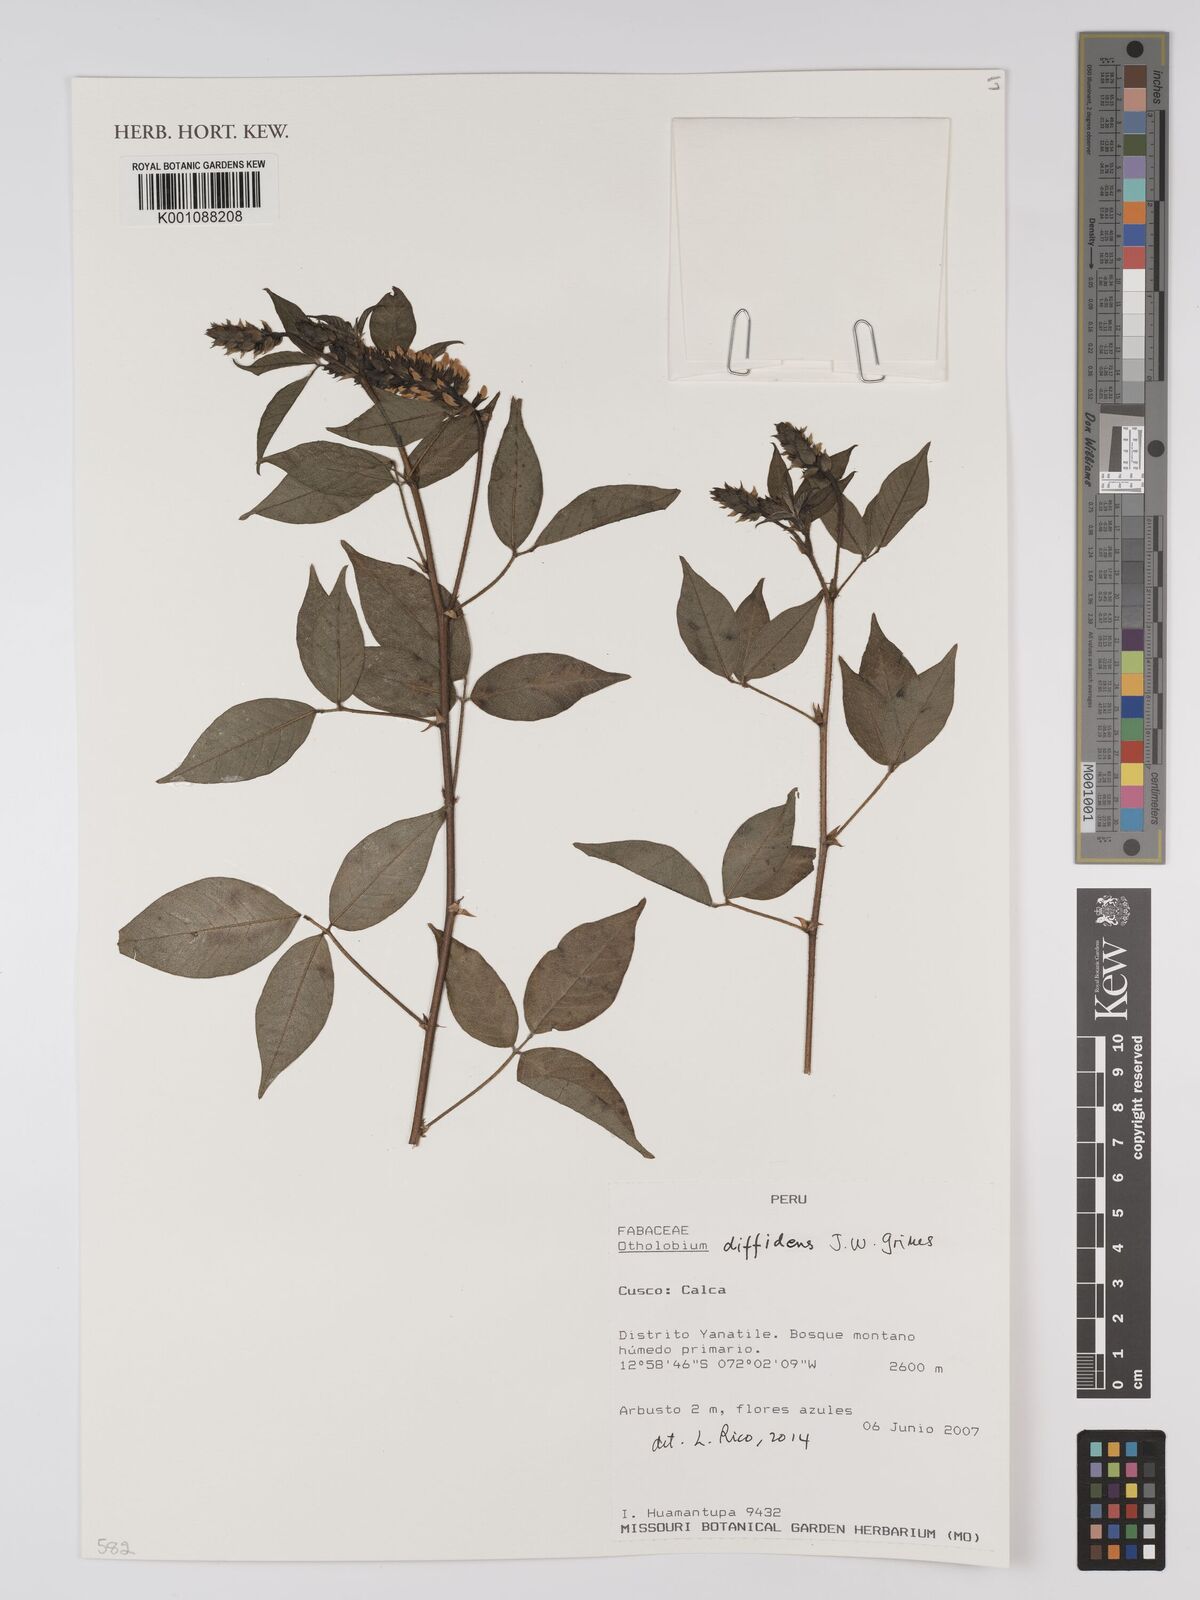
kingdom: Plantae
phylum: Tracheophyta
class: Magnoliopsida
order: Fabales
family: Fabaceae
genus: Psoralea
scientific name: Psoralea Otholobium diffidens
